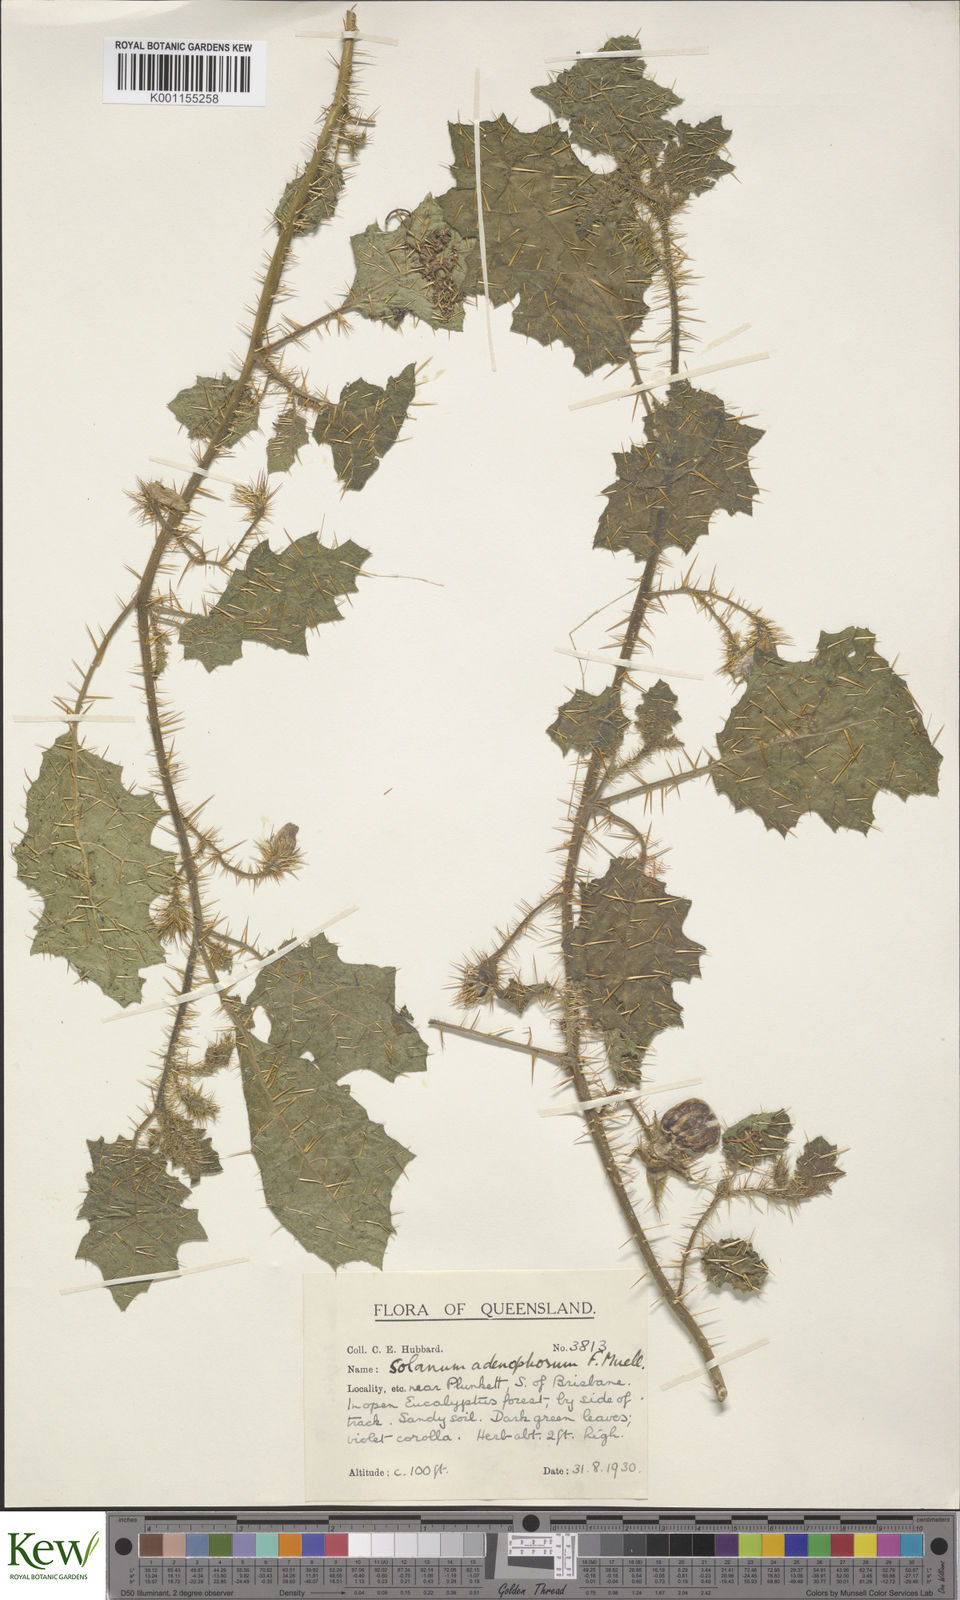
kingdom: Plantae
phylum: Tracheophyta
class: Magnoliopsida
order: Solanales
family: Solanaceae
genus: Solanum
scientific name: Solanum
